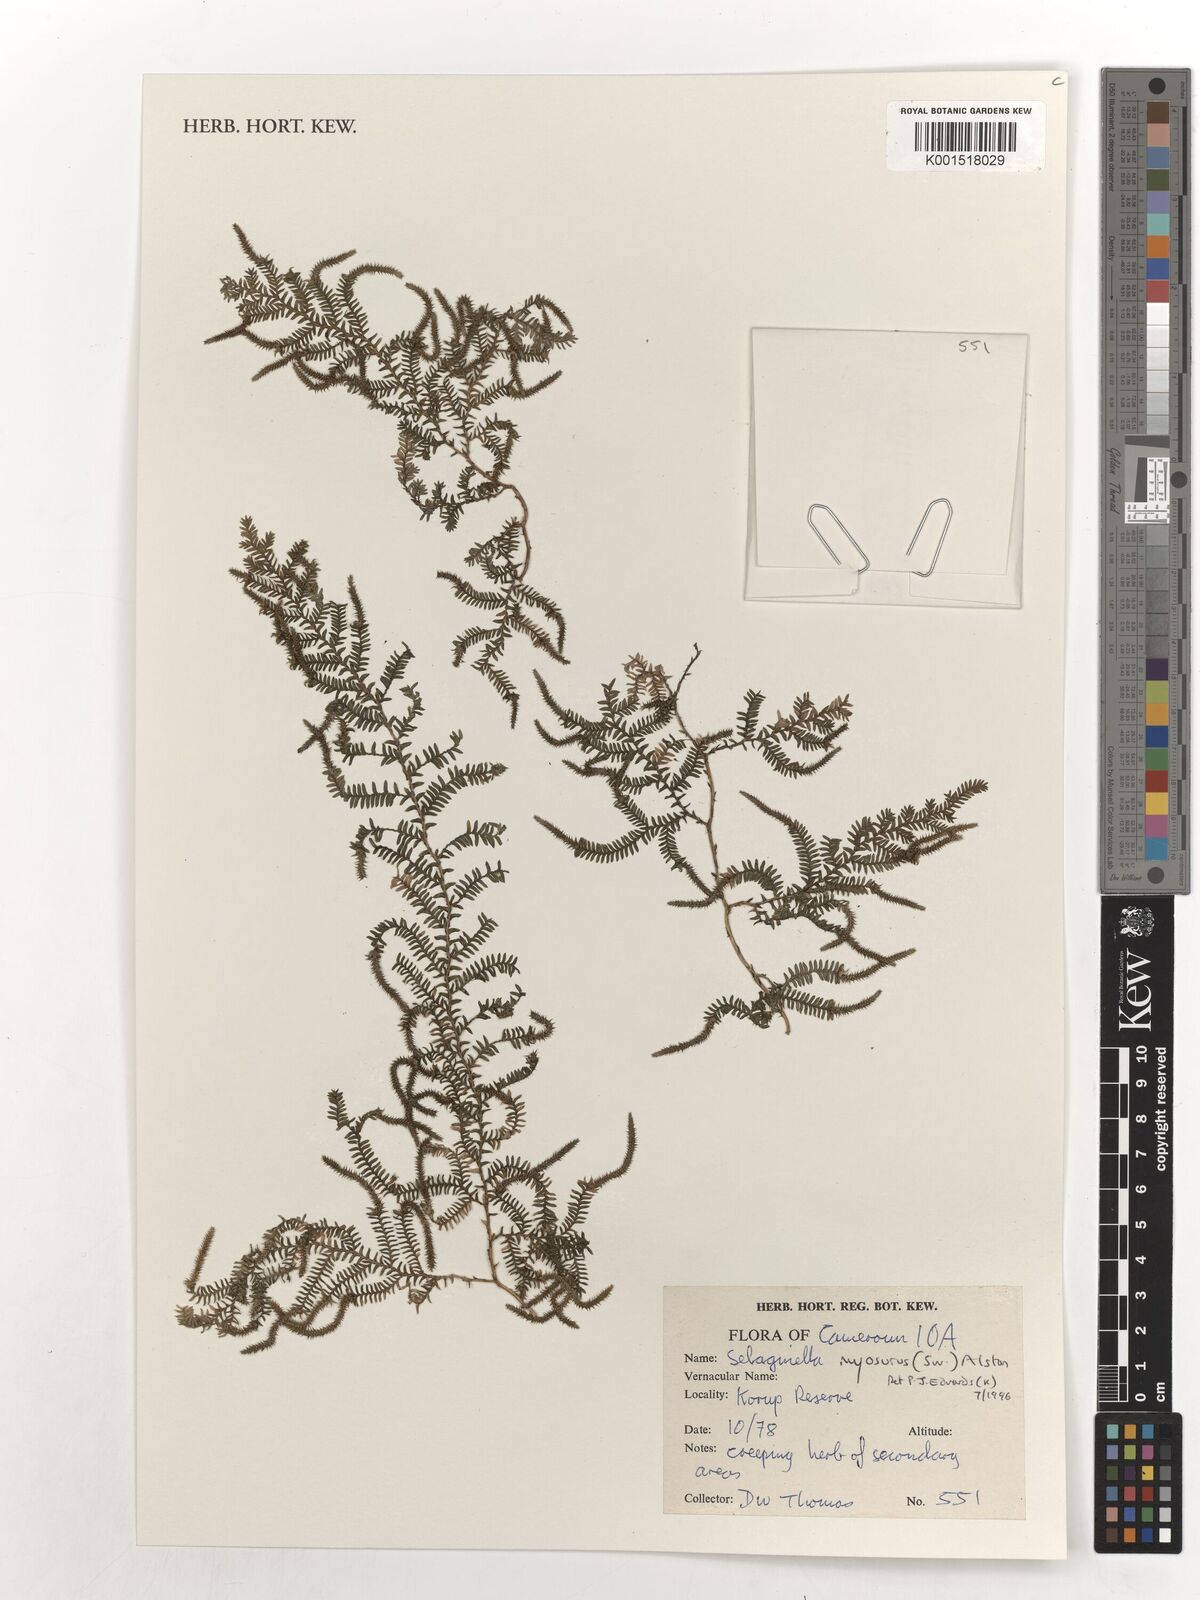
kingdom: Plantae
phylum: Tracheophyta
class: Lycopodiopsida
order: Selaginellales
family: Selaginellaceae
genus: Selaginella
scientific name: Selaginella myosurus
